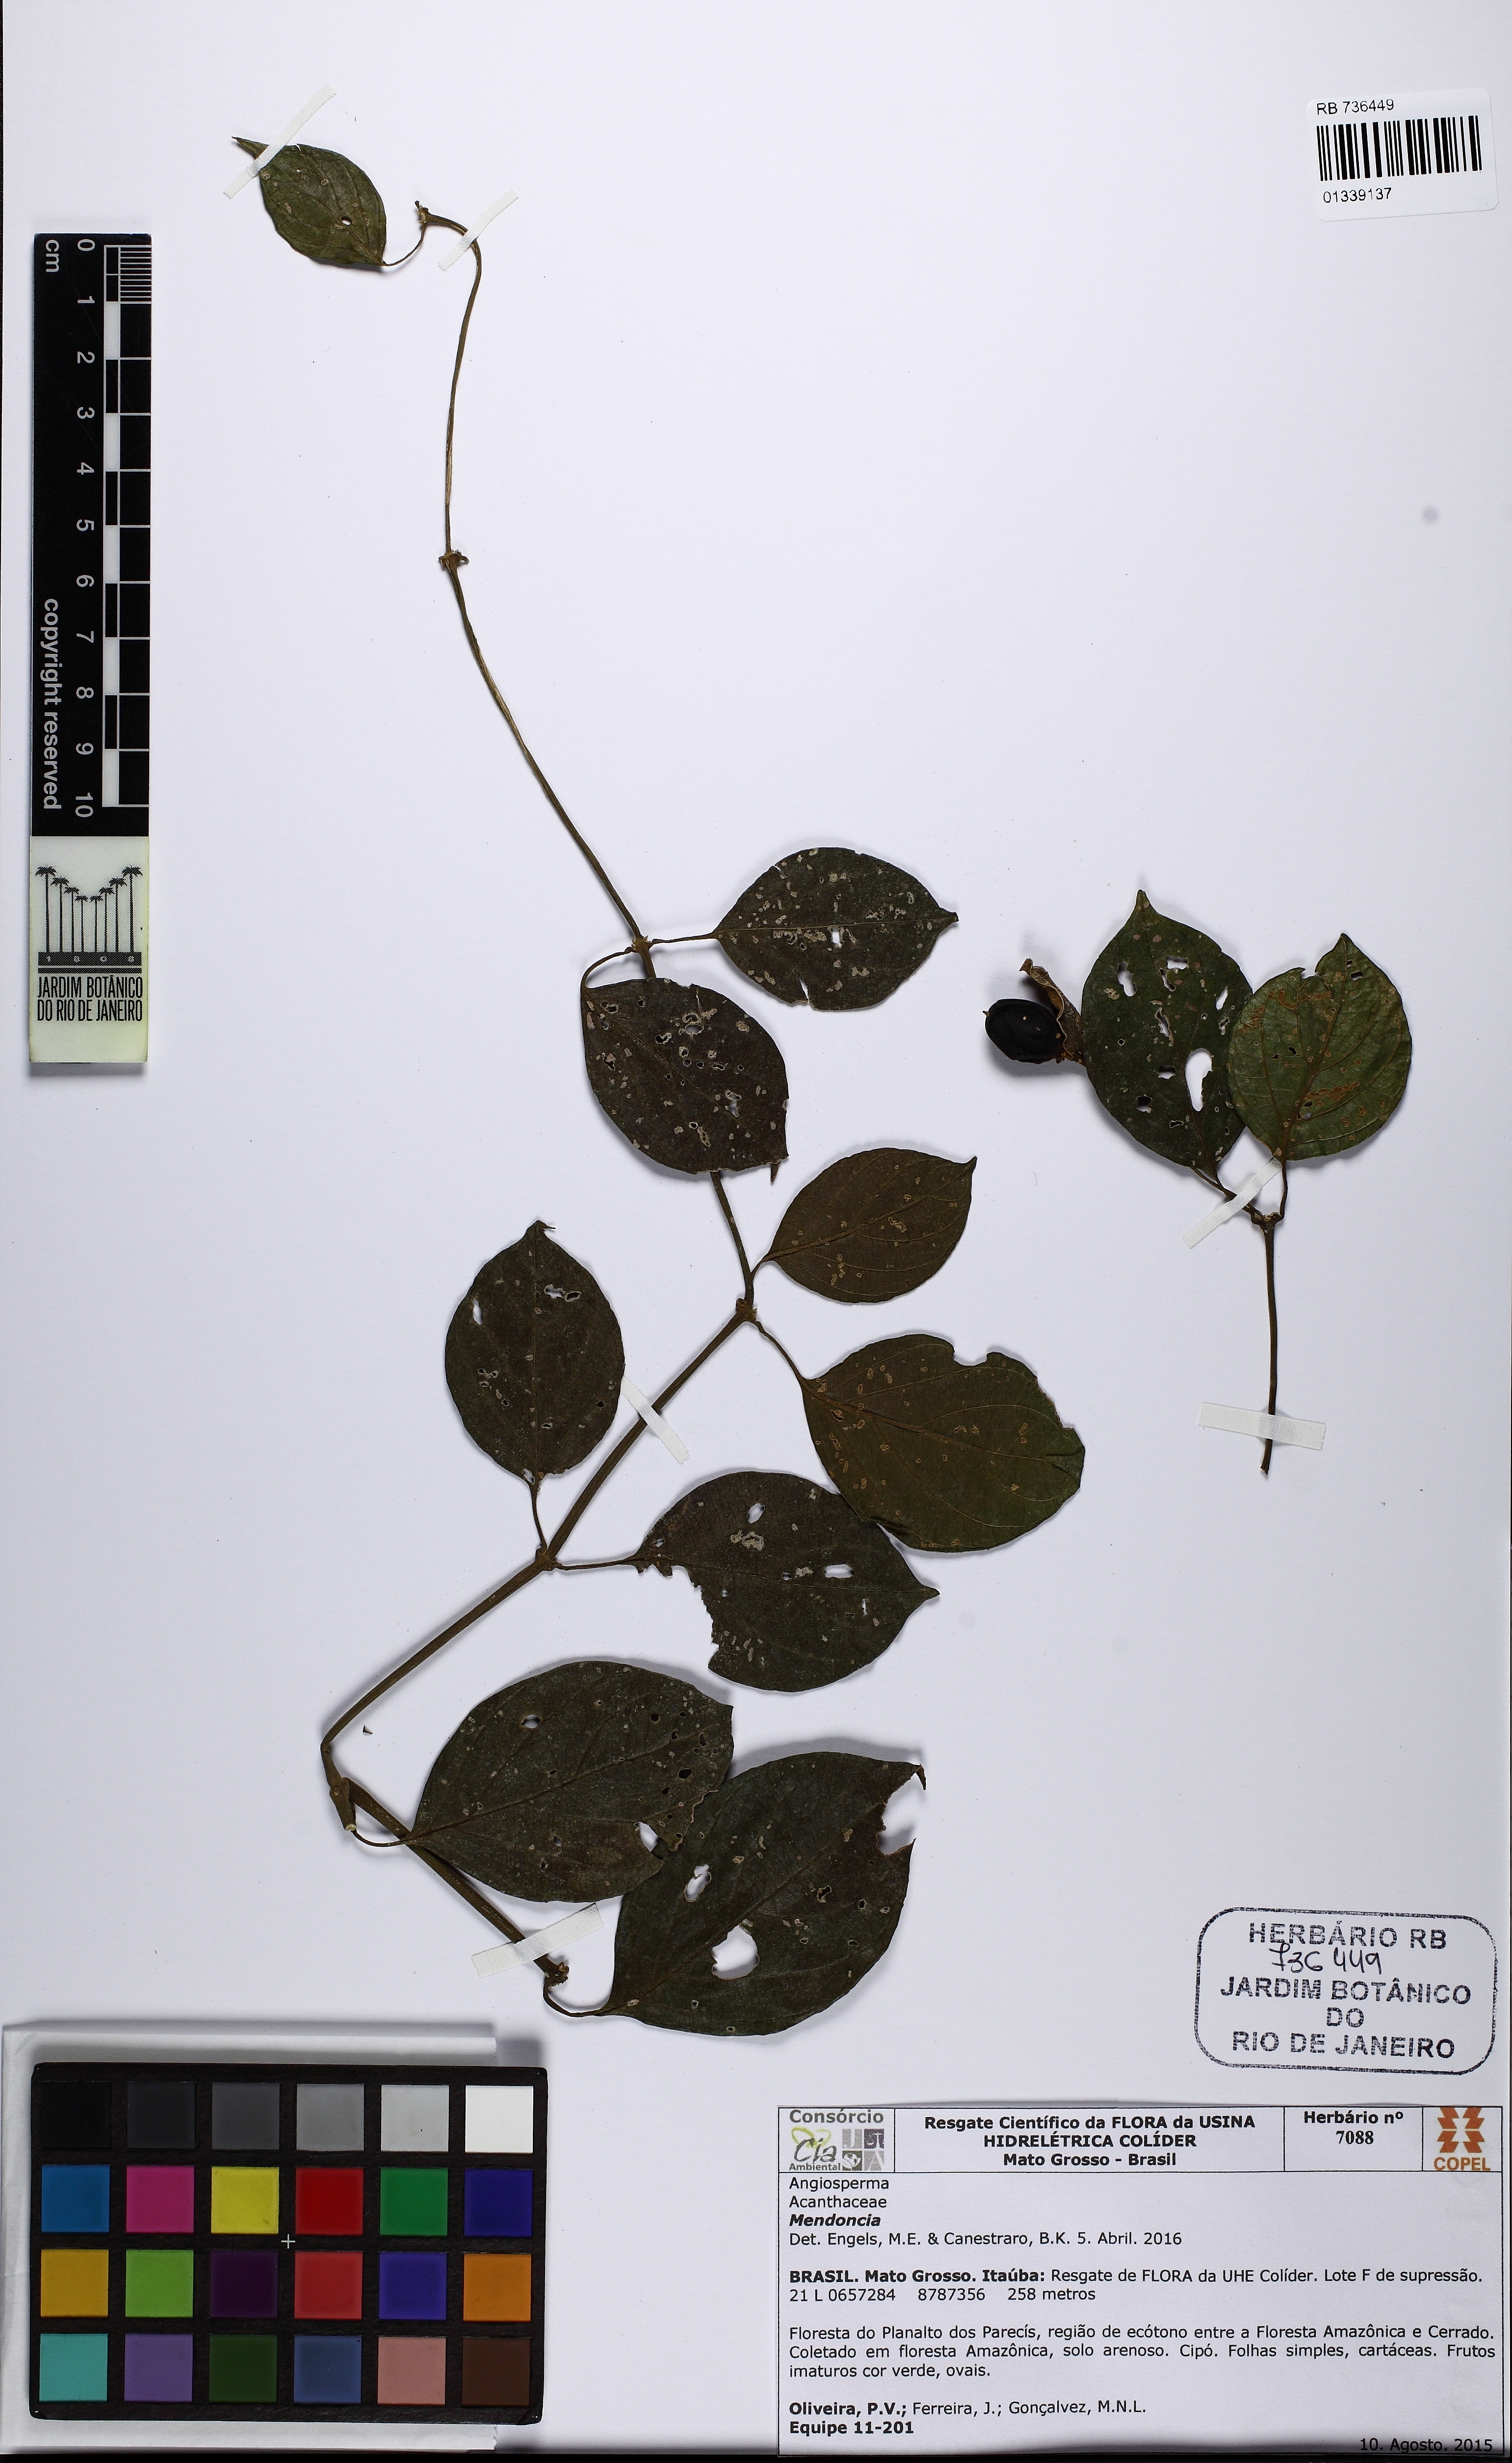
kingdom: Plantae
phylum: Tracheophyta
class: Magnoliopsida
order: Lamiales
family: Acanthaceae
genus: Mendoncia
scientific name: Mendoncia sprucei
